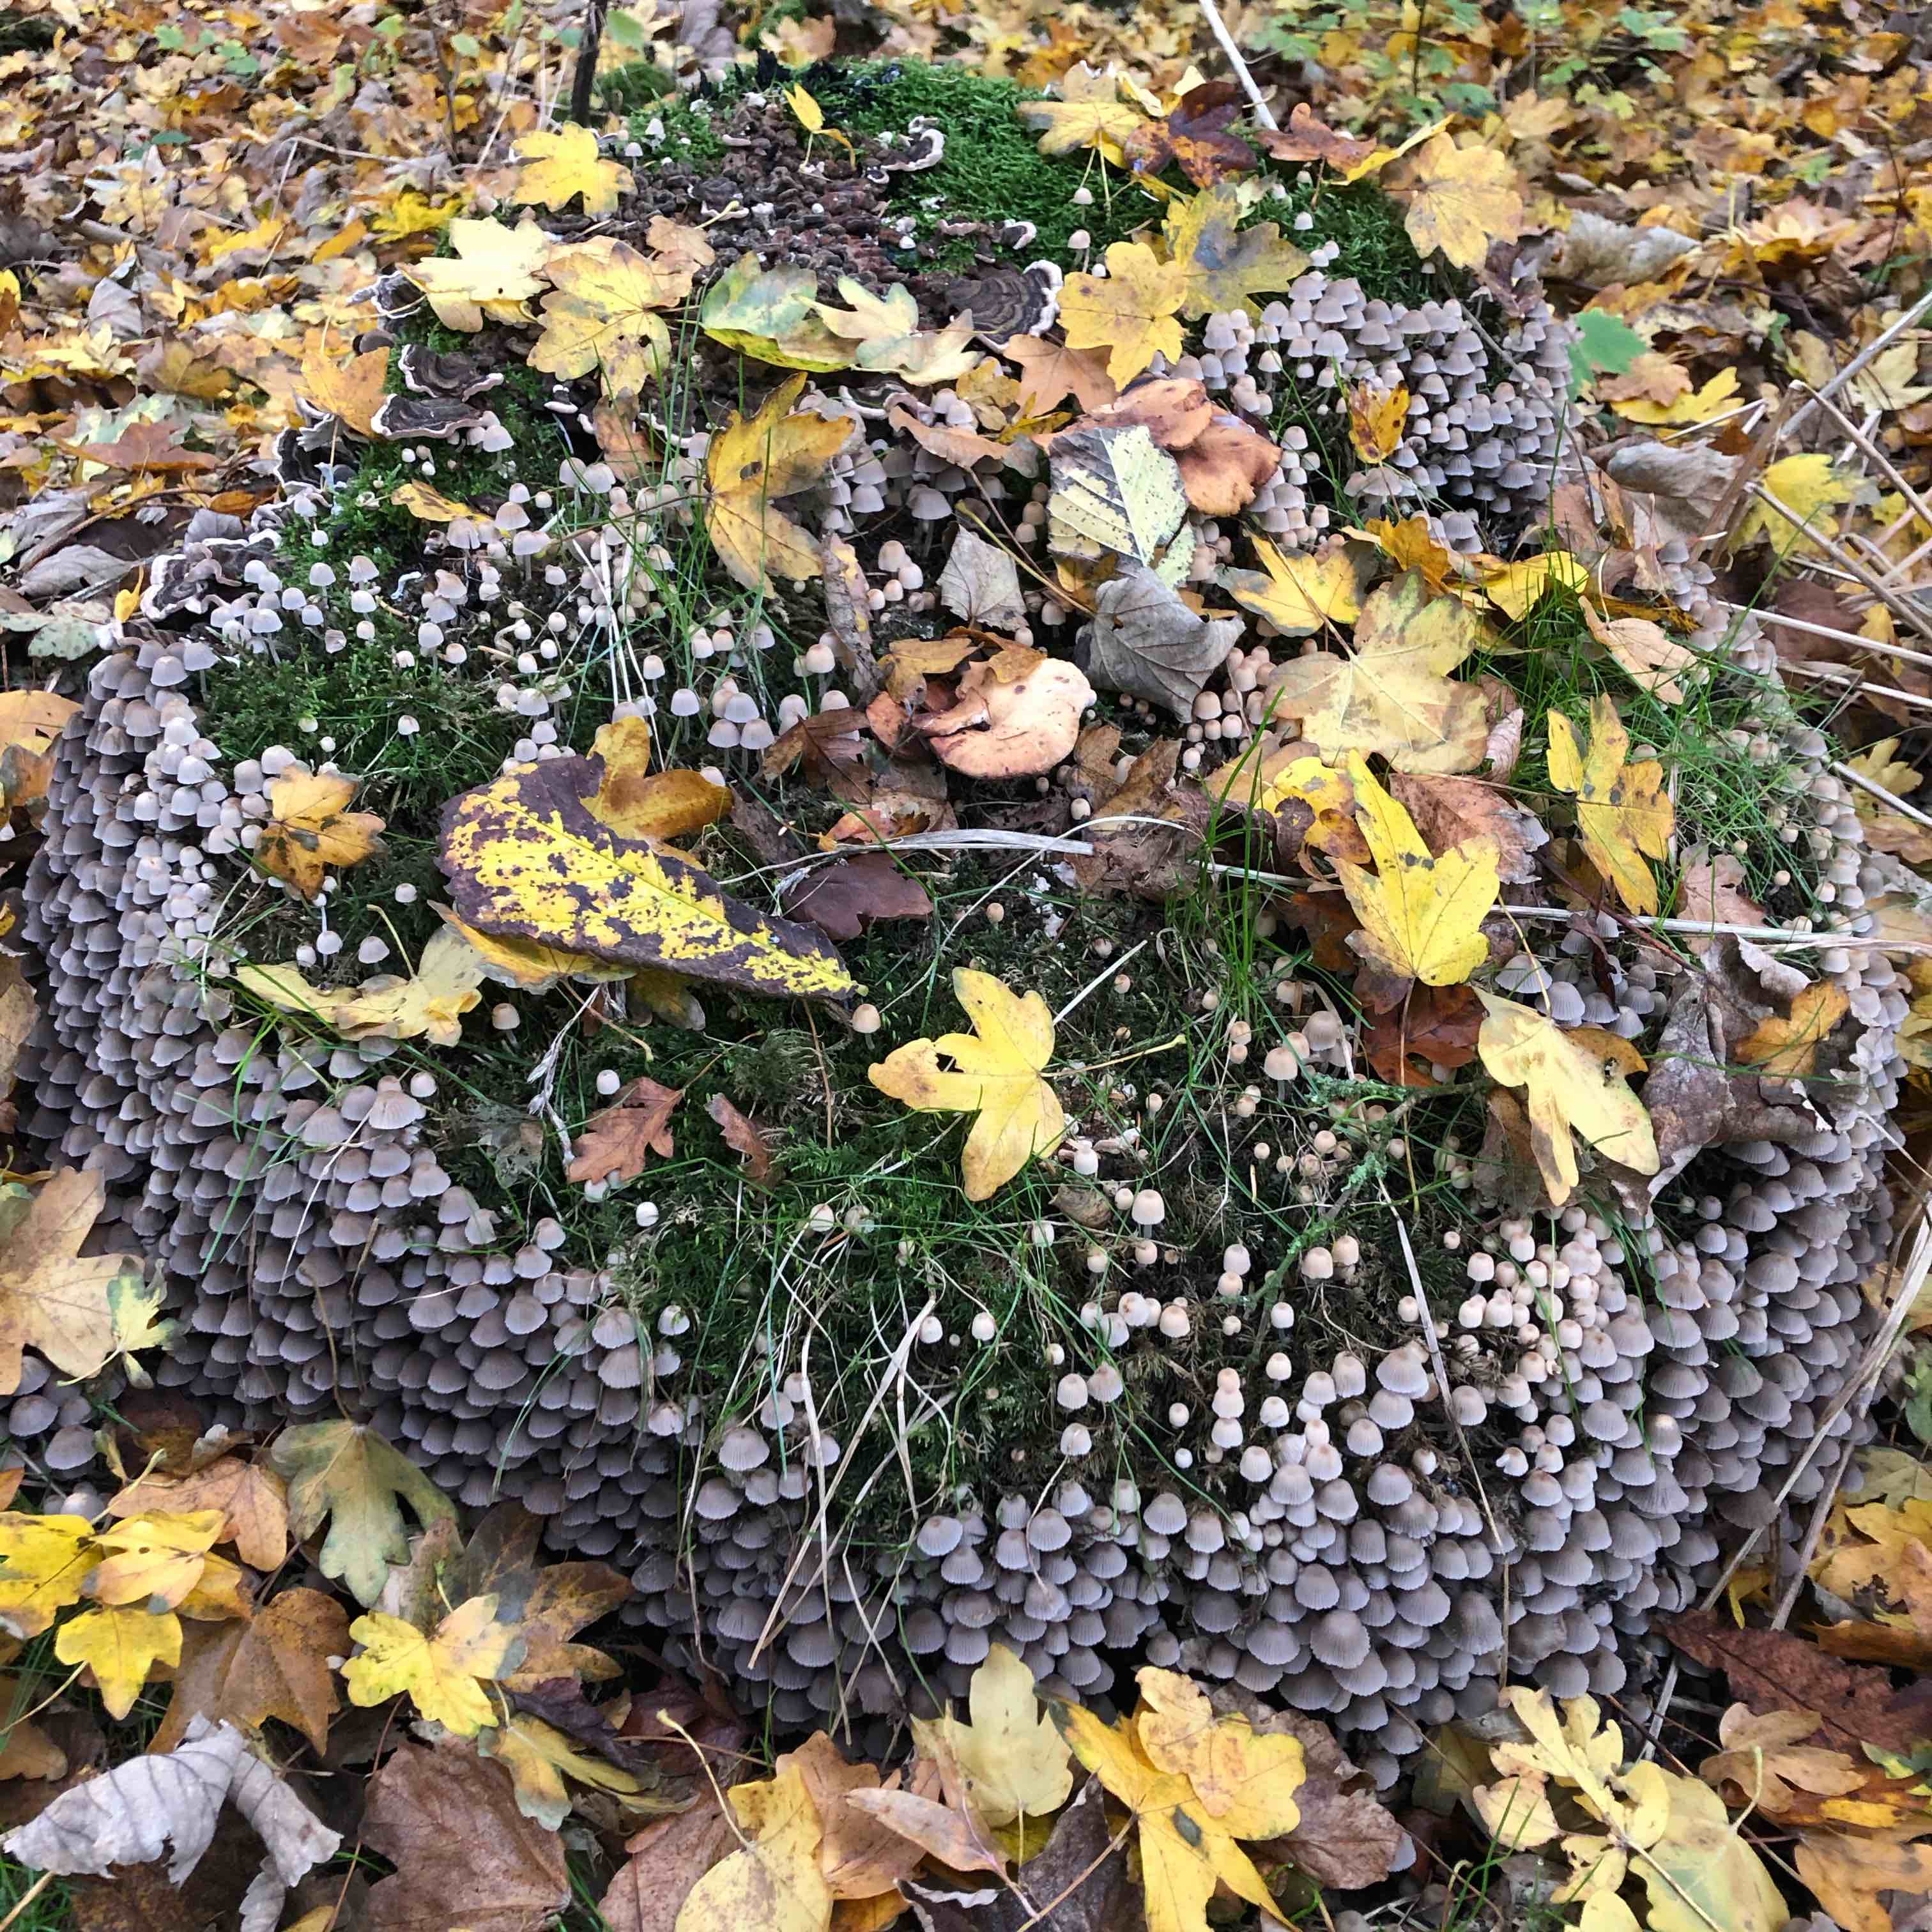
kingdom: Fungi
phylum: Basidiomycota
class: Agaricomycetes
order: Agaricales
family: Psathyrellaceae
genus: Coprinellus
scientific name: Coprinellus disseminatus
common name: bredsået blækhat
